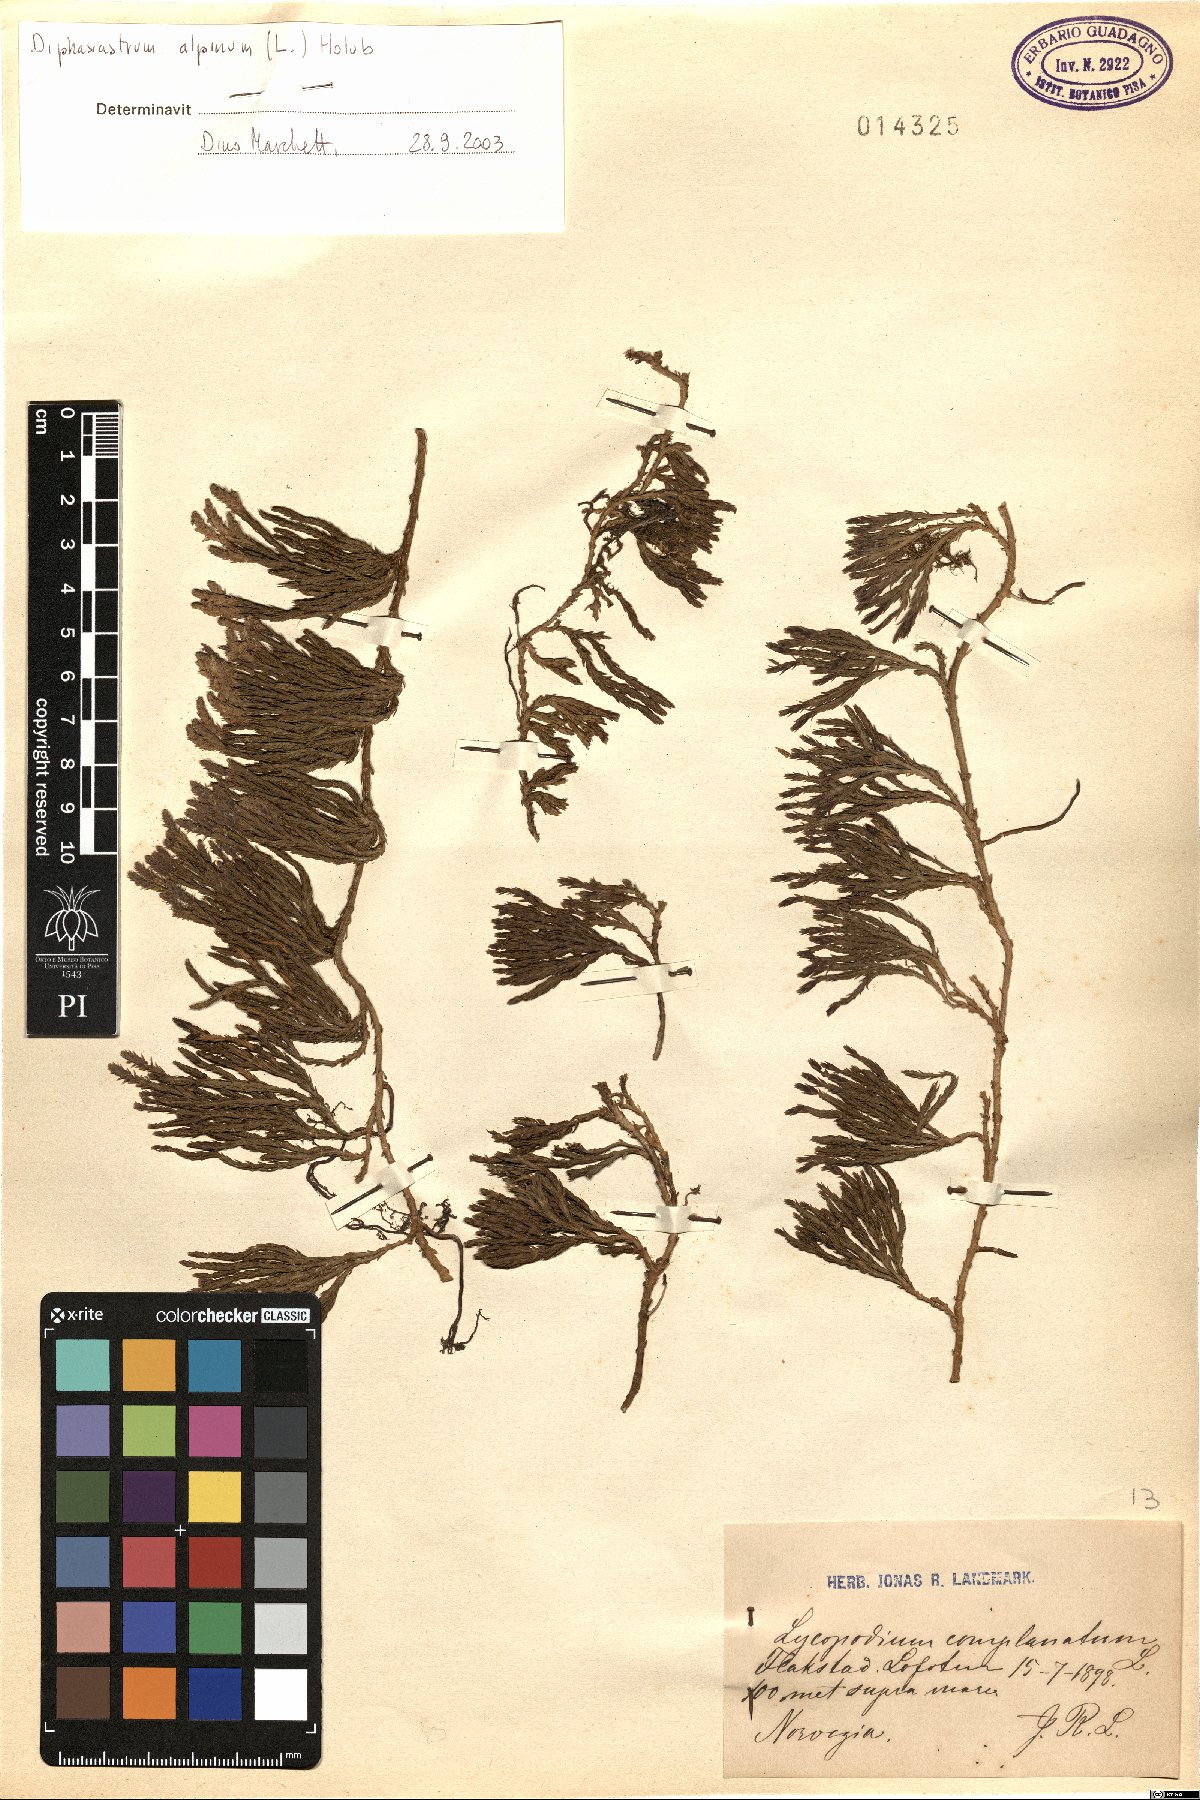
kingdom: Plantae
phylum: Tracheophyta
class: Lycopodiopsida
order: Lycopodiales
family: Lycopodiaceae
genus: Diphasiastrum
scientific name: Diphasiastrum alpinum
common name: Alpine clubmoss
